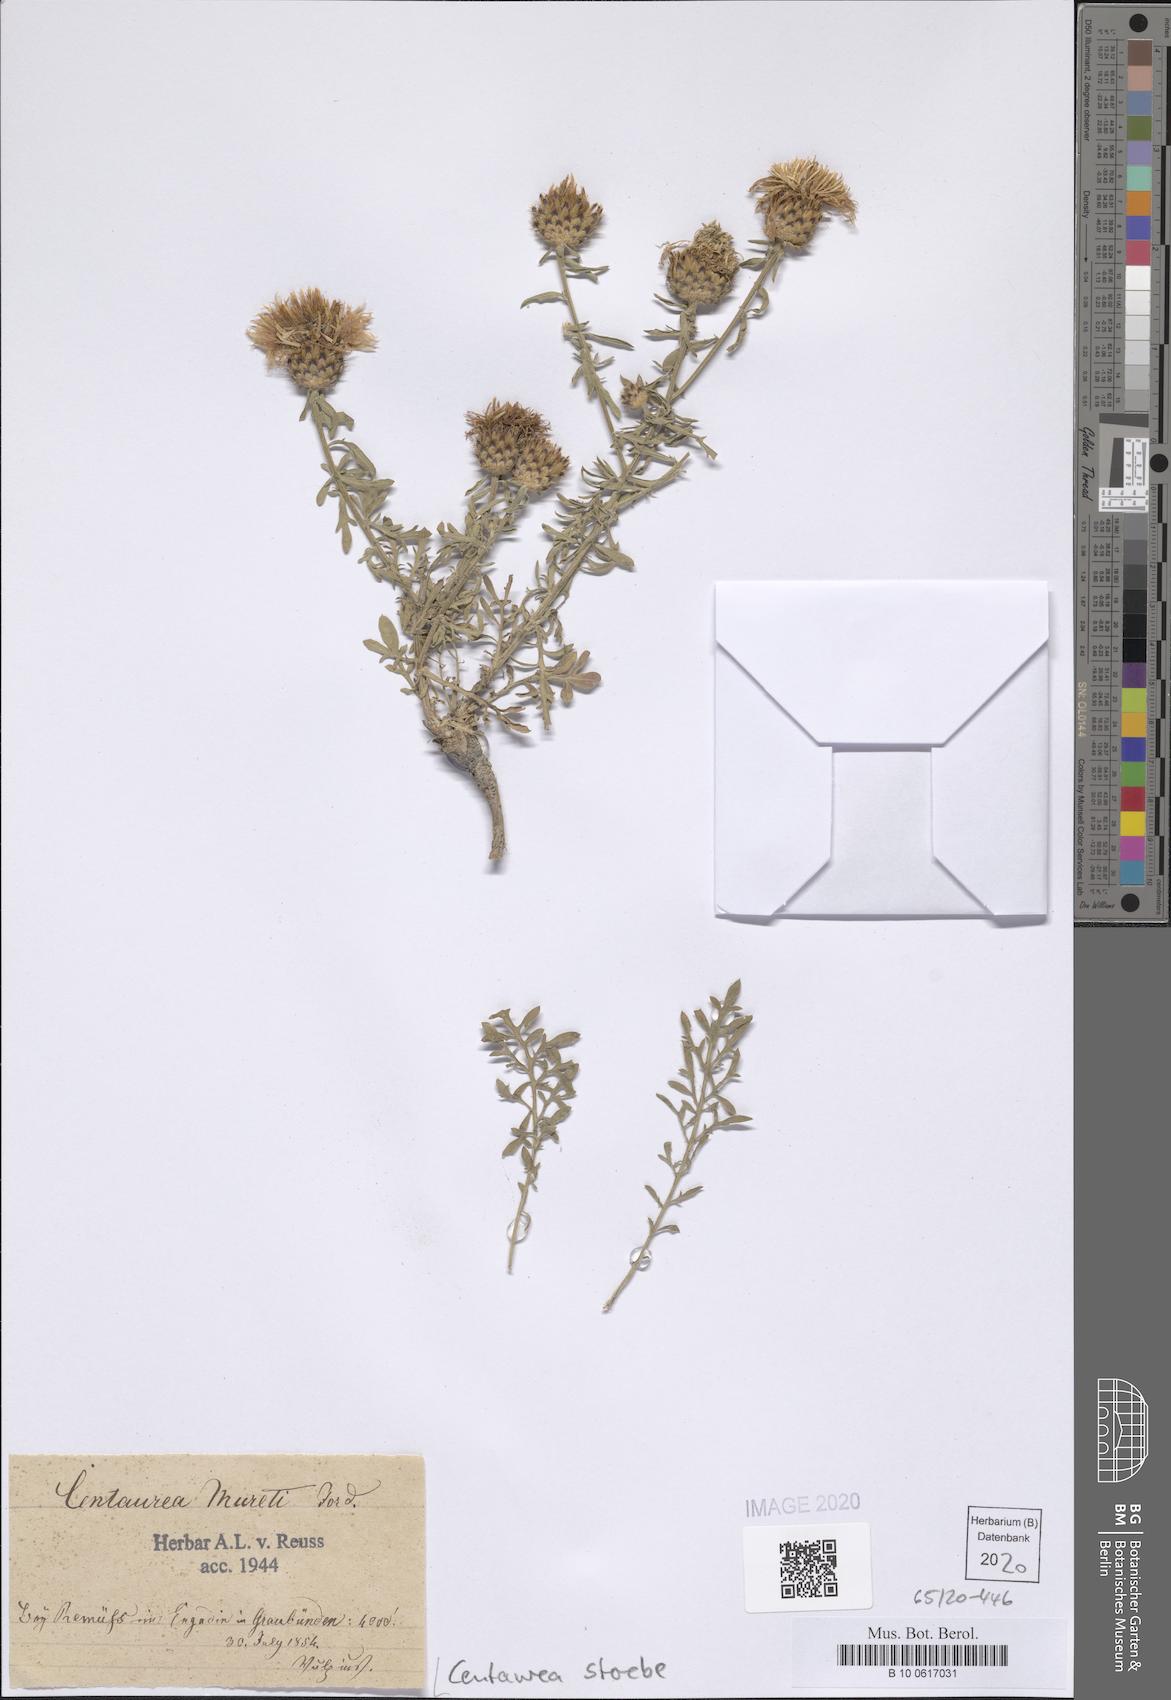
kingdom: Plantae
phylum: Tracheophyta
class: Magnoliopsida
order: Asterales
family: Asteraceae
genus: Centaurea
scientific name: Centaurea stoebe
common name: Spotted knapweed
